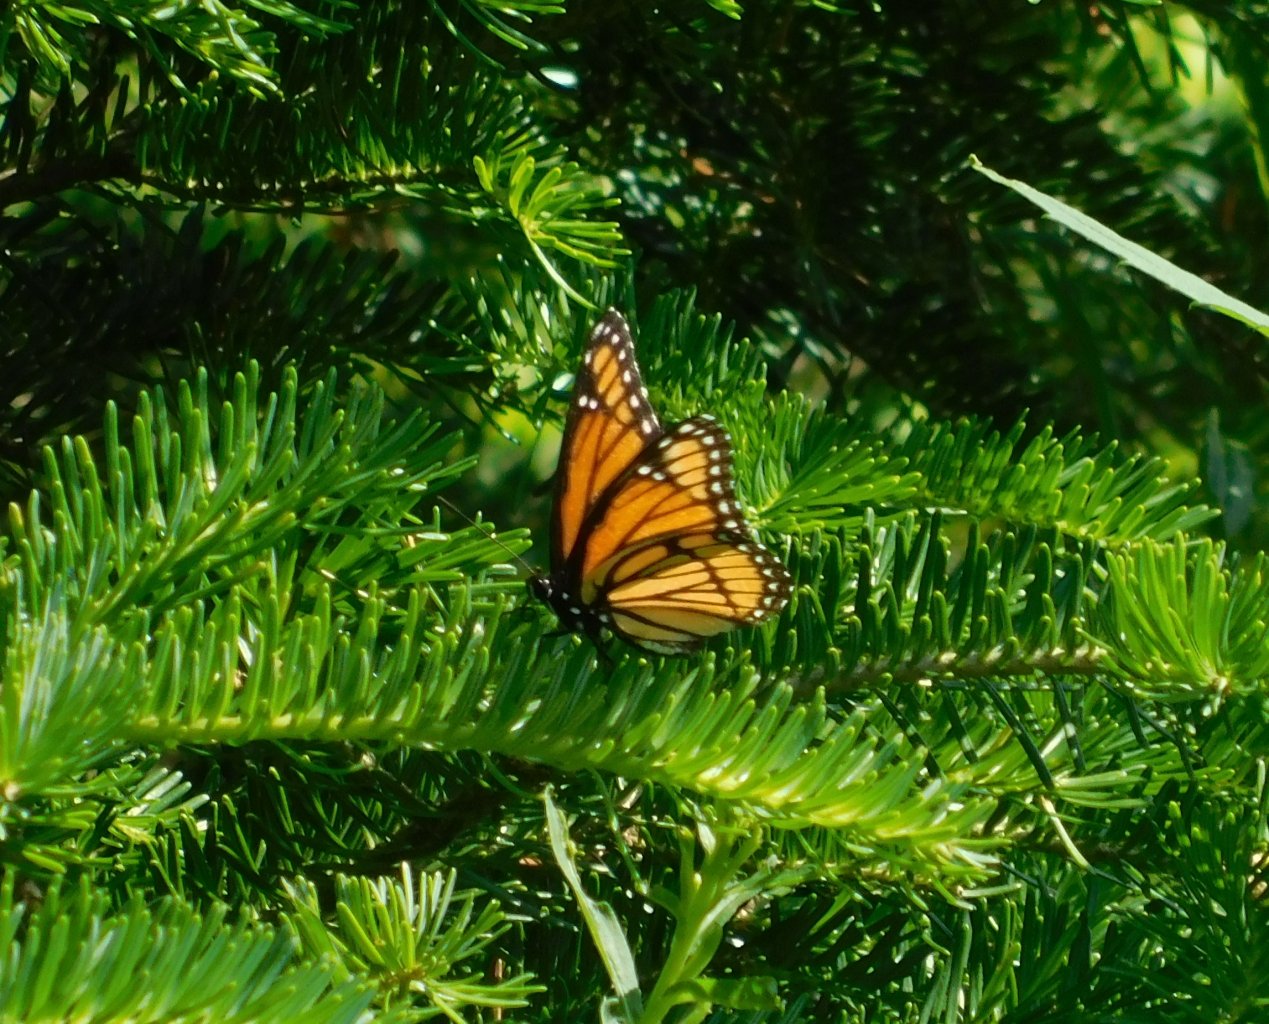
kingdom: Animalia
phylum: Arthropoda
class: Insecta
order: Lepidoptera
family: Nymphalidae
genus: Limenitis
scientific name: Limenitis archippus
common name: Viceroy
